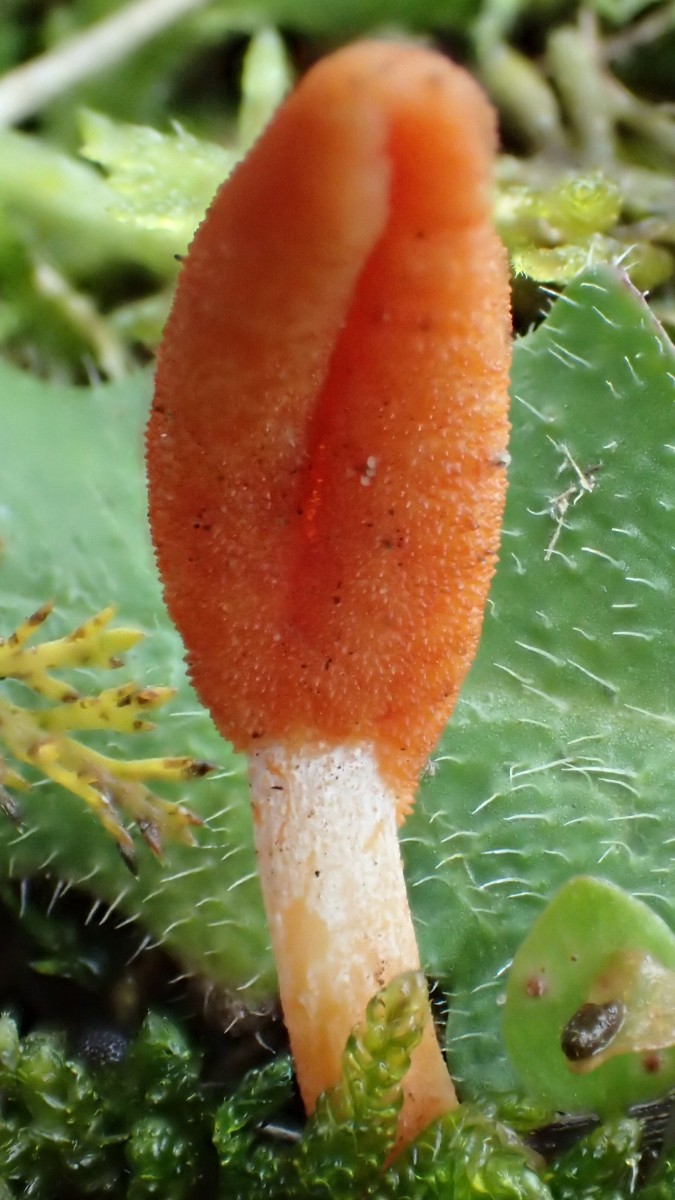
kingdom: Fungi
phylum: Ascomycota
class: Sordariomycetes
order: Hypocreales
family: Cordycipitaceae
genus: Cordyceps
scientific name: Cordyceps militaris
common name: puppe-snyltekølle
